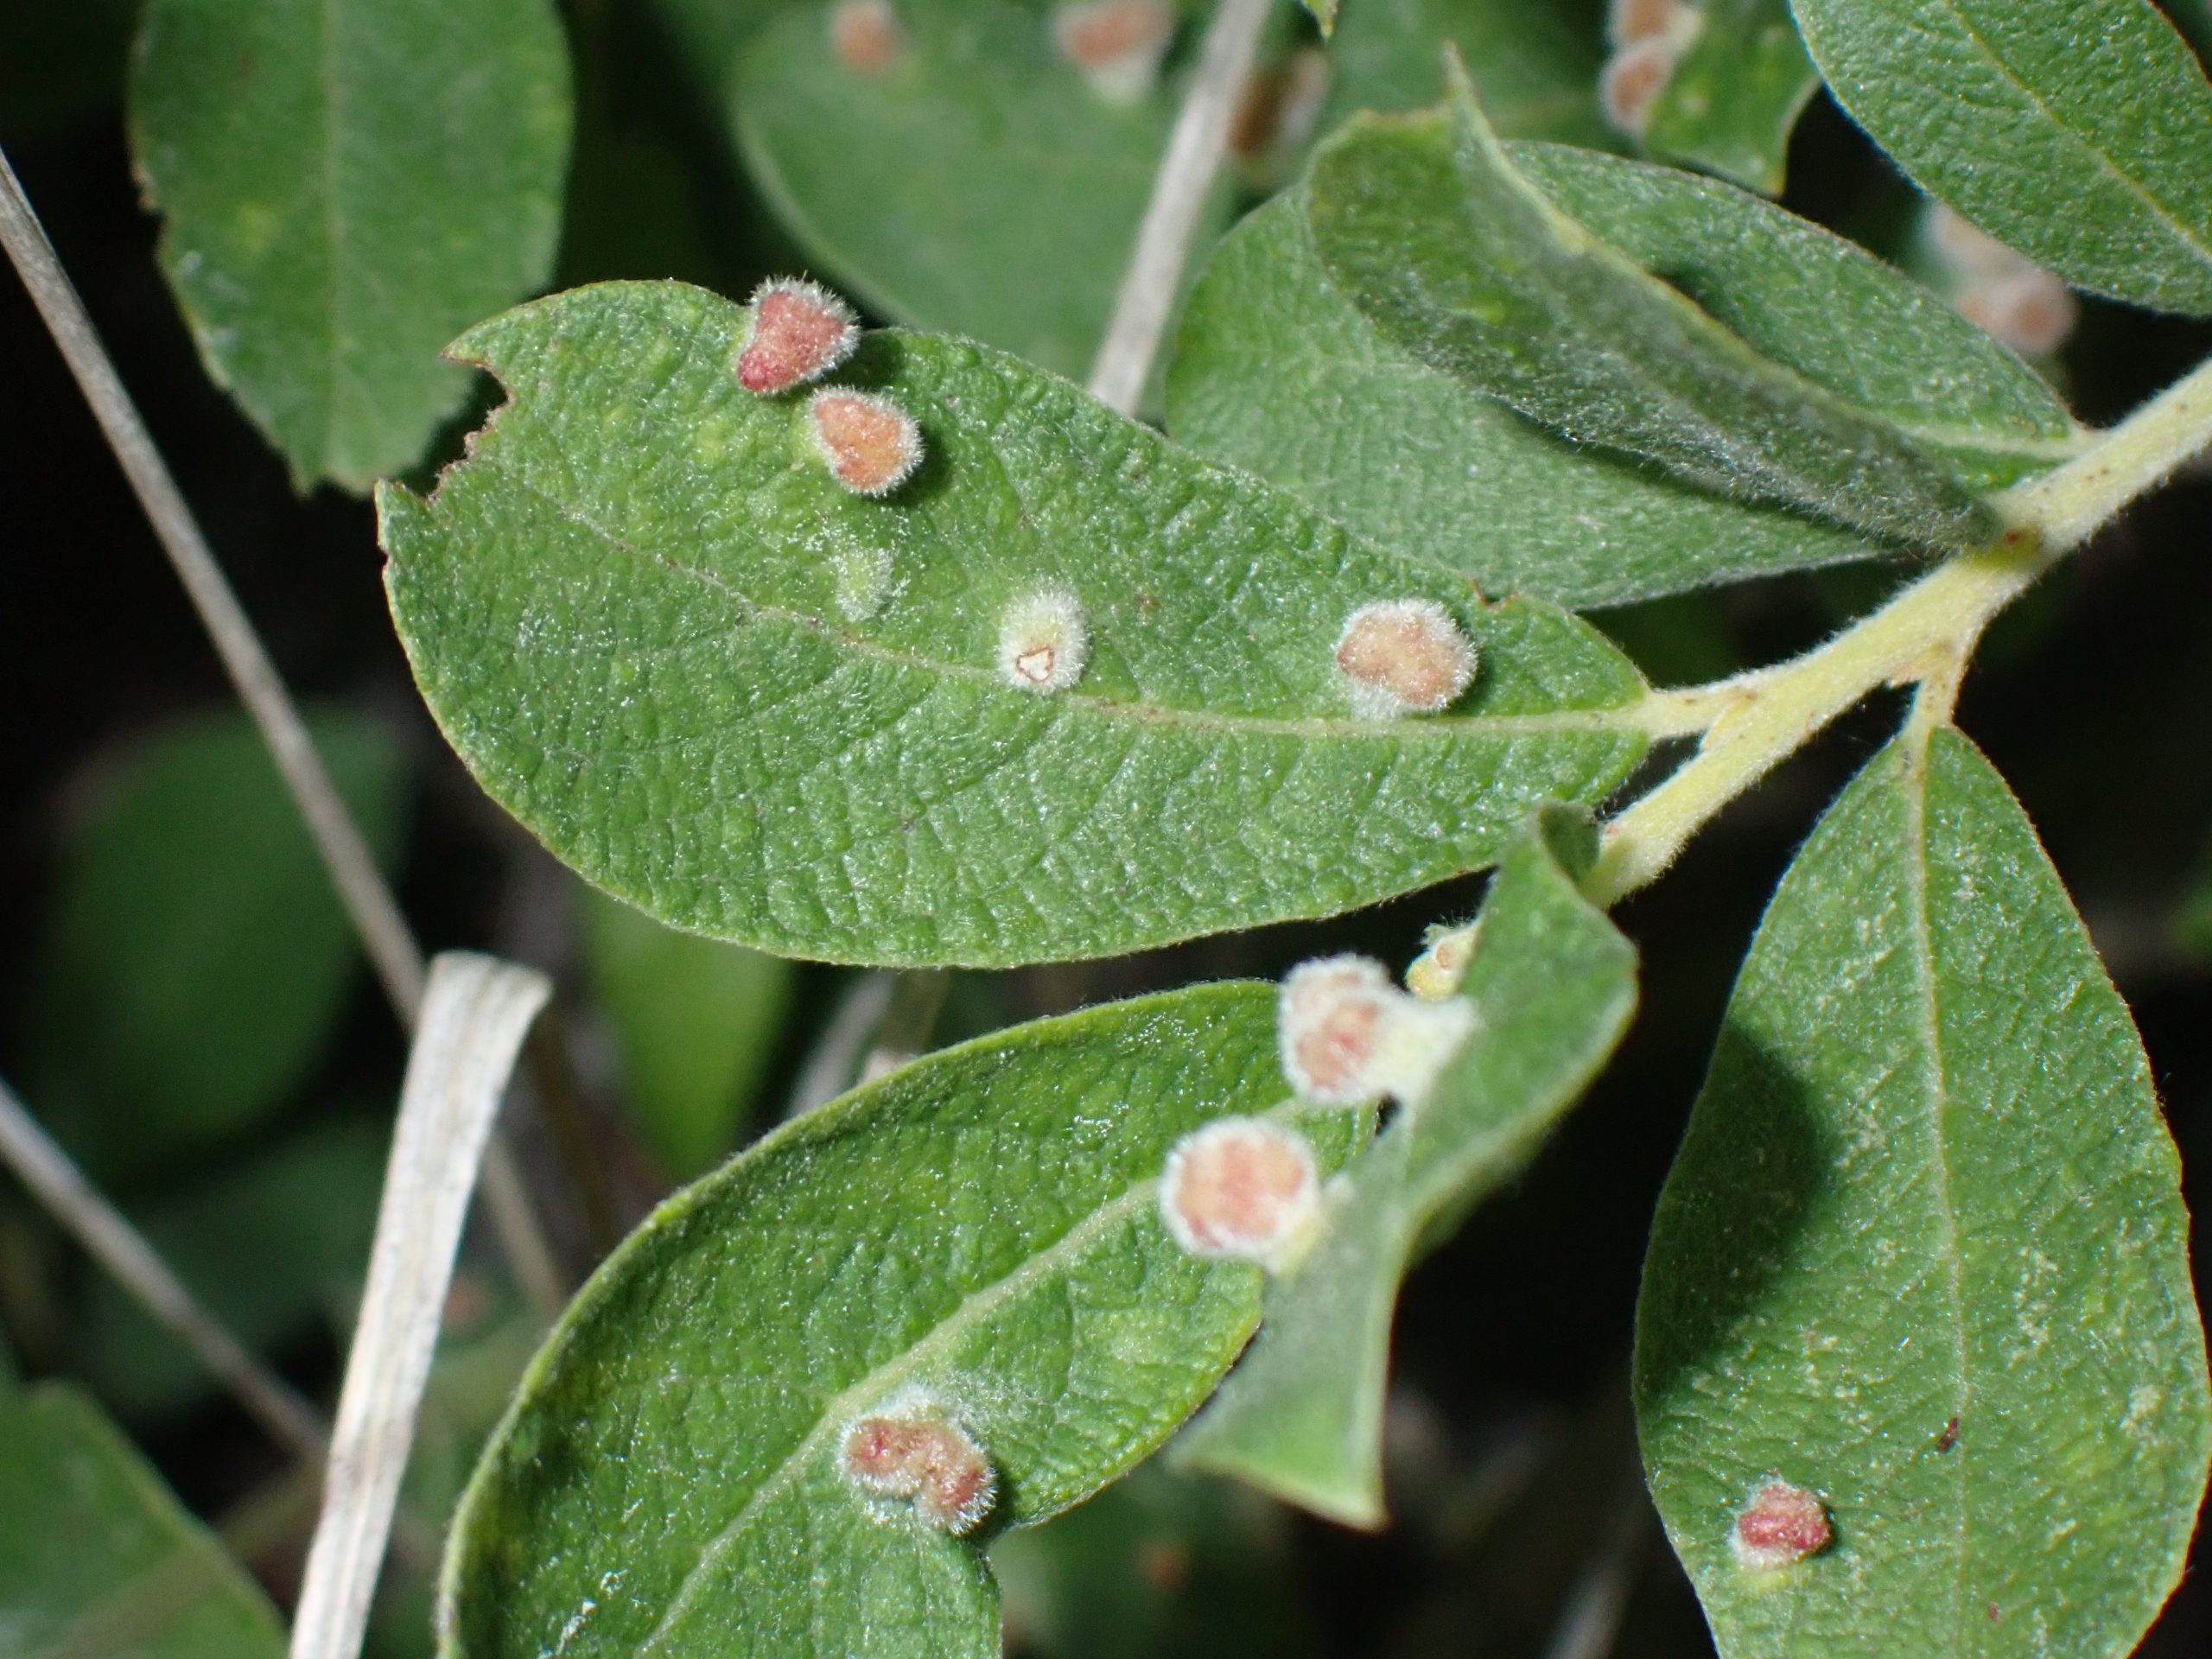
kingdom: Animalia
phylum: Arthropoda
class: Arachnida
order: Trombidiformes
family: Eriophyidae
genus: Aceria
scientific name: Aceria iteina
